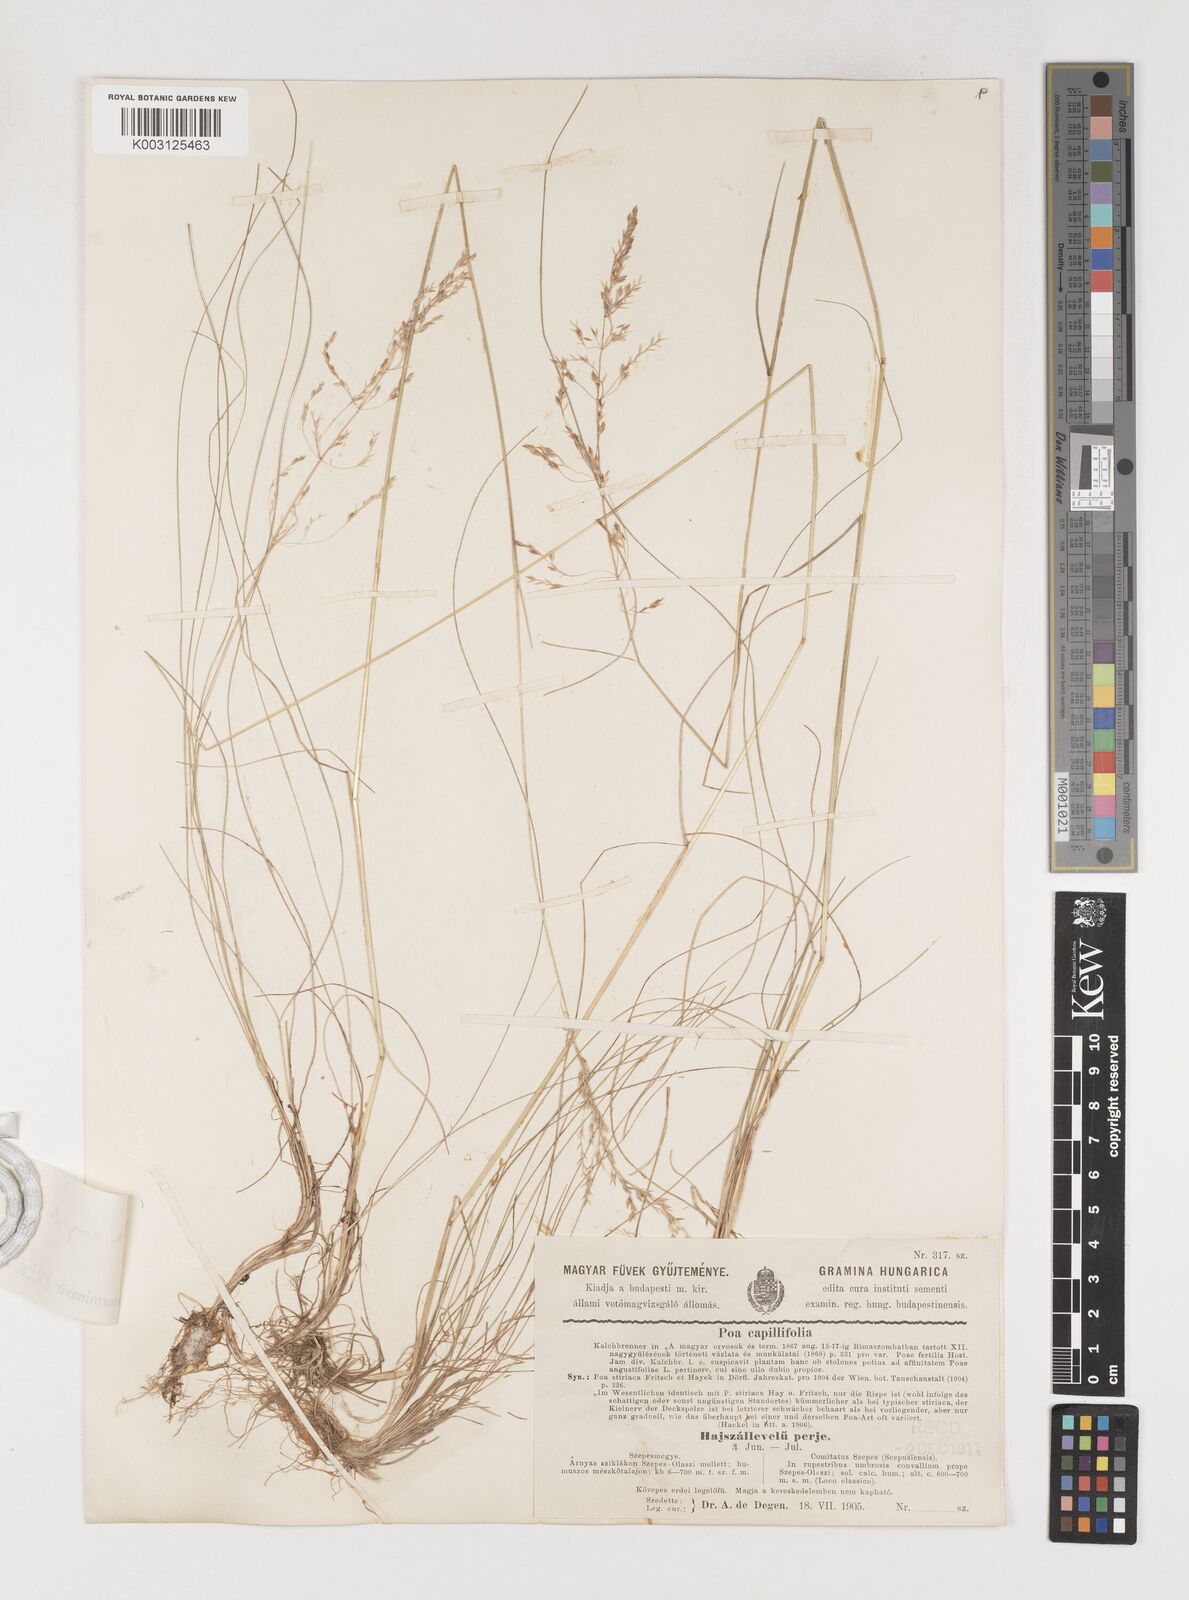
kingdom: Plantae
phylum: Tracheophyta
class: Liliopsida
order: Poales
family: Poaceae
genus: Poa
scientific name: Poa angustifolia
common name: Narrow-leaved meadow-grass
